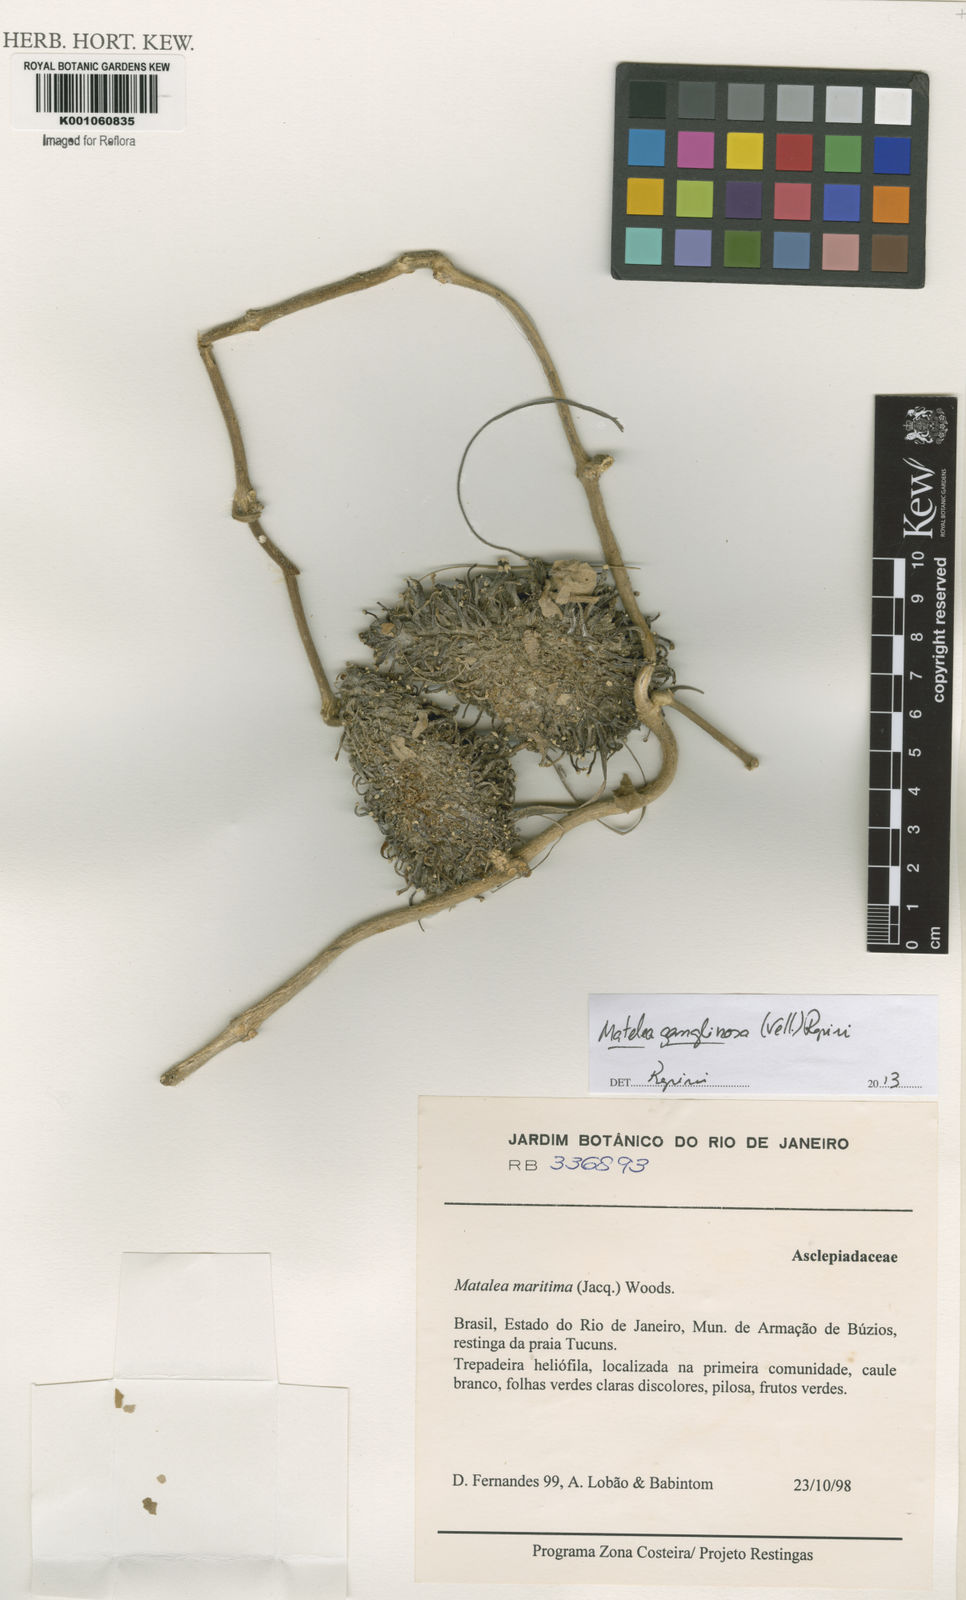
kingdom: Plantae
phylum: Tracheophyta
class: Magnoliopsida
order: Gentianales
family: Apocynaceae
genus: Ibatia
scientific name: Ibatia ganglinosa
